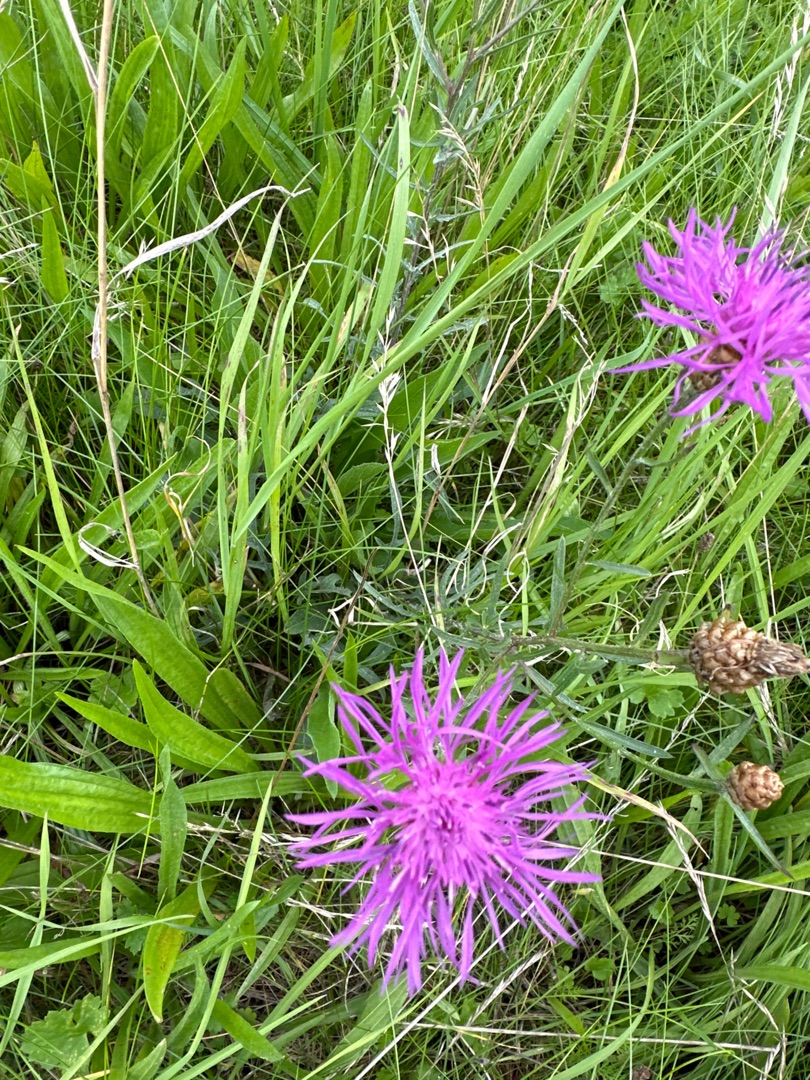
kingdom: Plantae
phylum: Tracheophyta
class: Magnoliopsida
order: Asterales
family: Asteraceae
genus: Centaurea
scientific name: Centaurea jacea
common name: Almindelig knopurt
